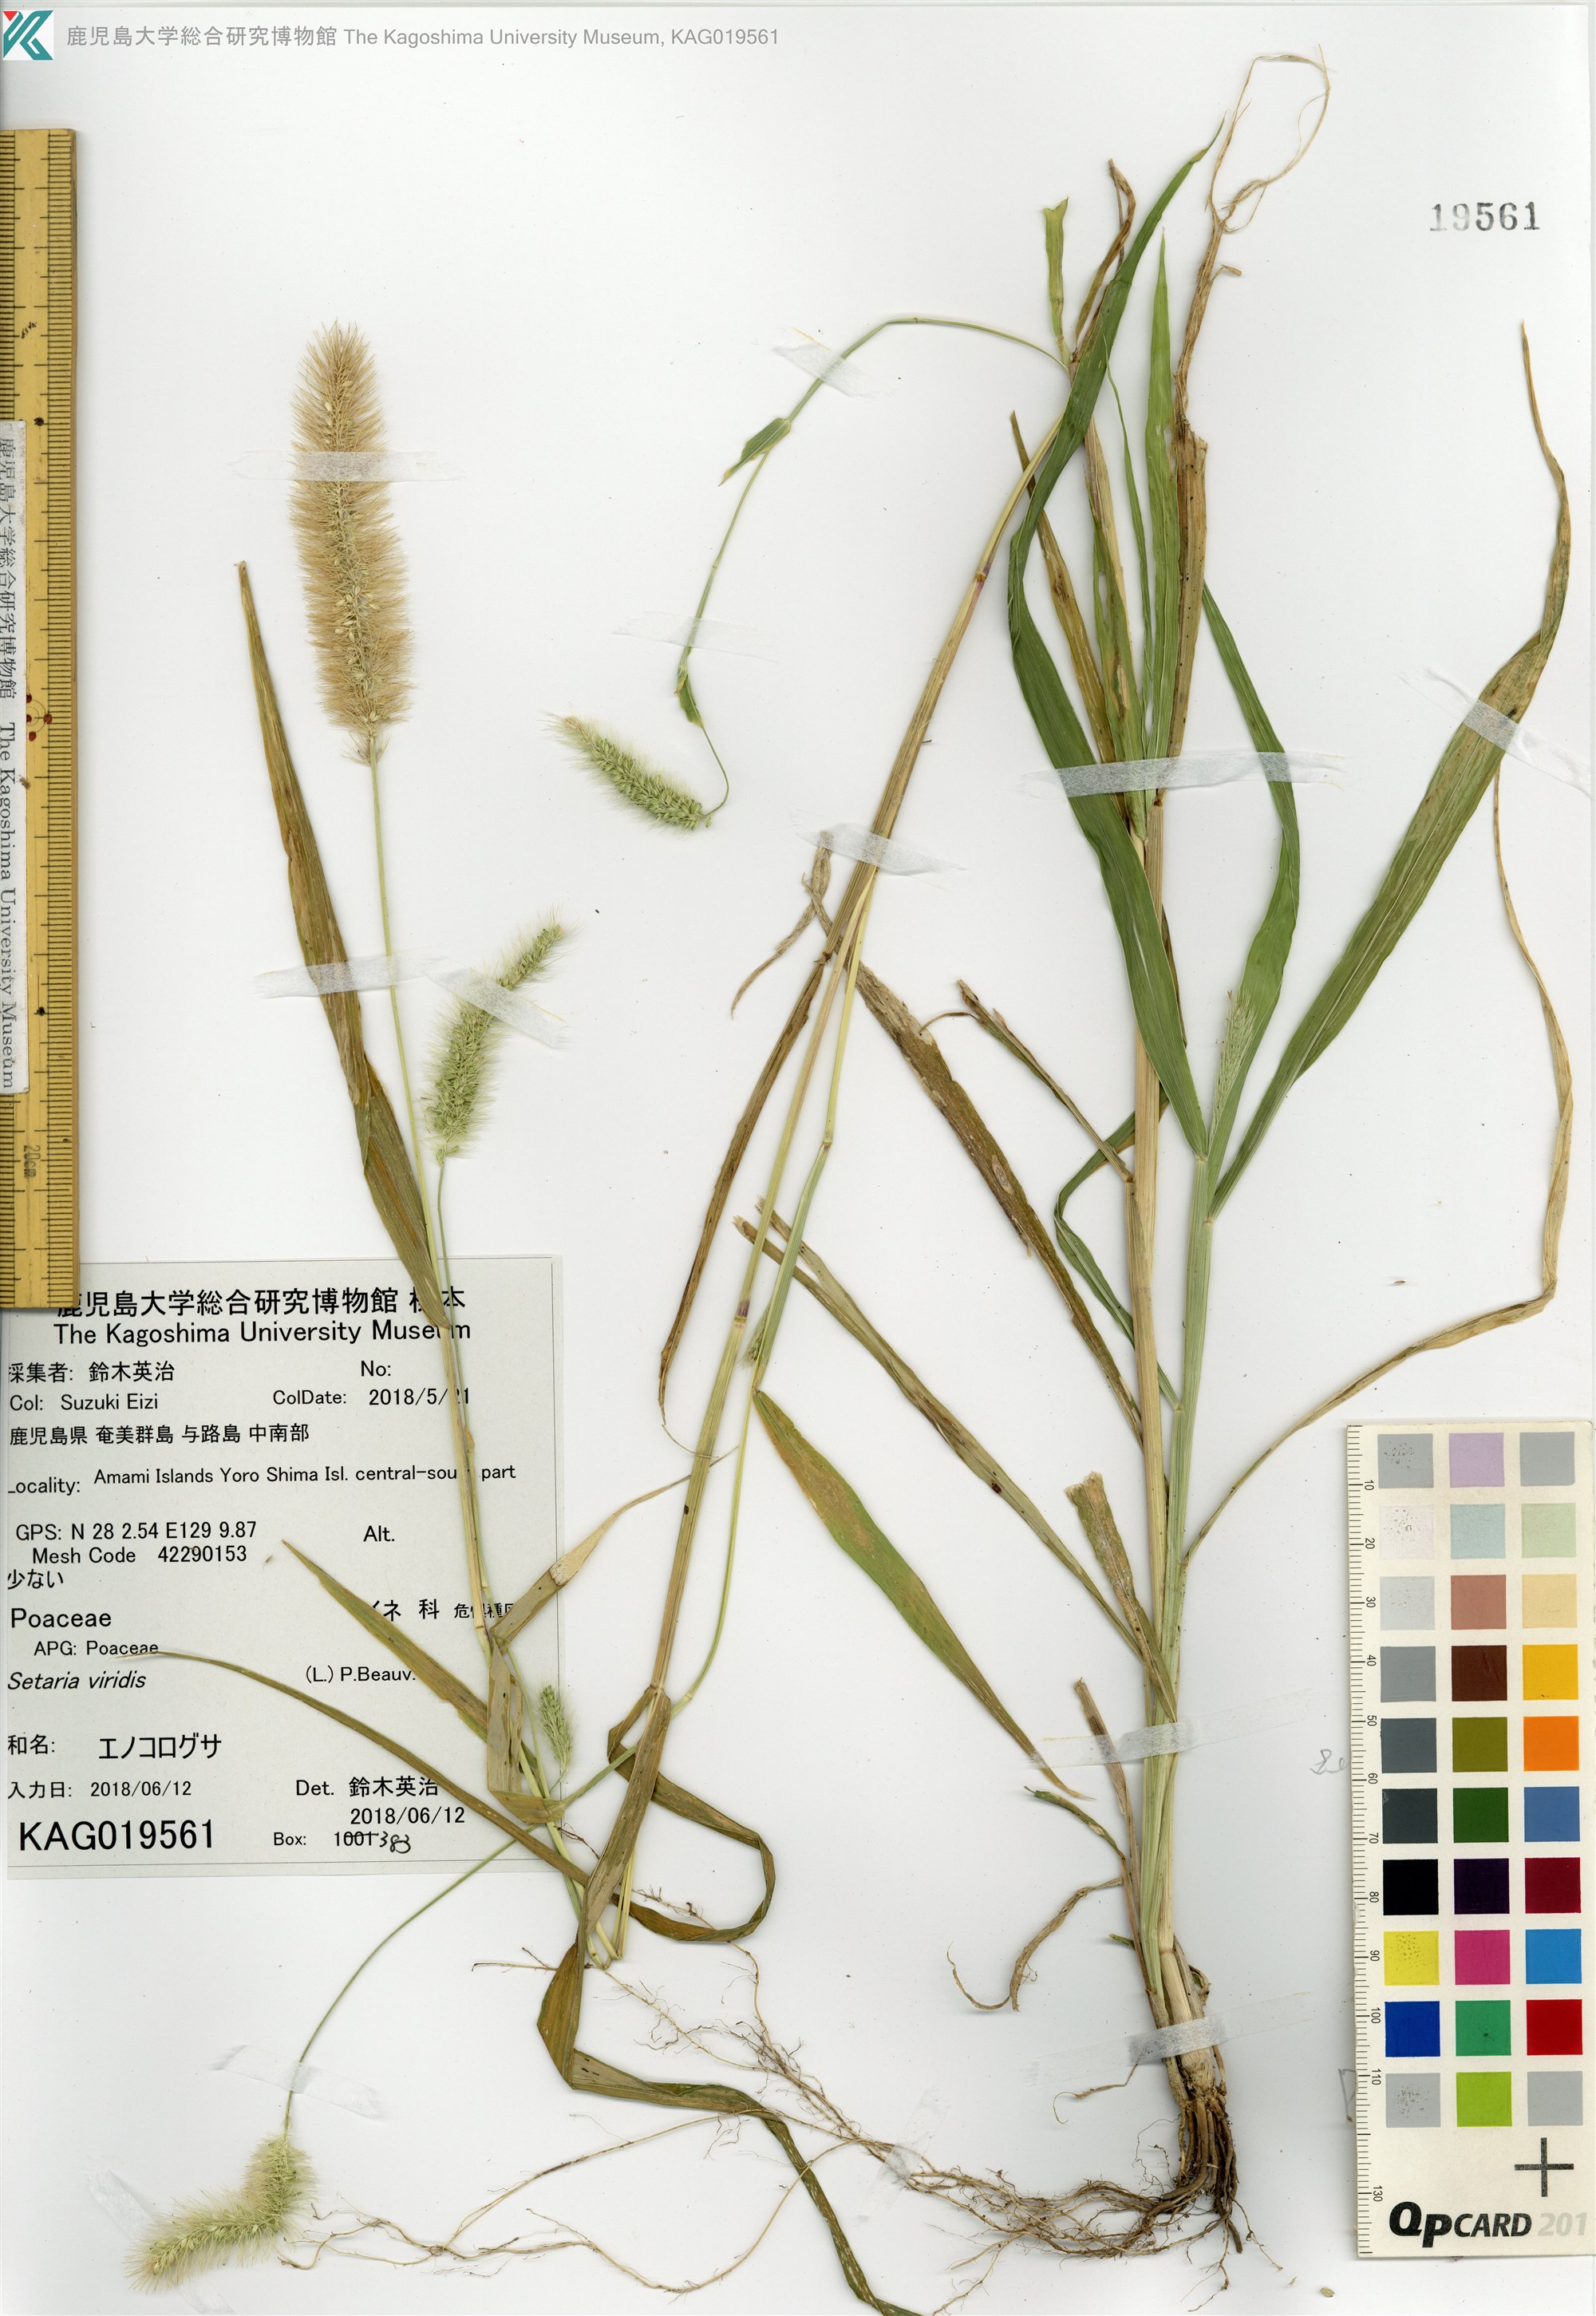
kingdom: Plantae
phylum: Tracheophyta
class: Liliopsida
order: Poales
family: Poaceae
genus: Setaria
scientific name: Setaria viridis
